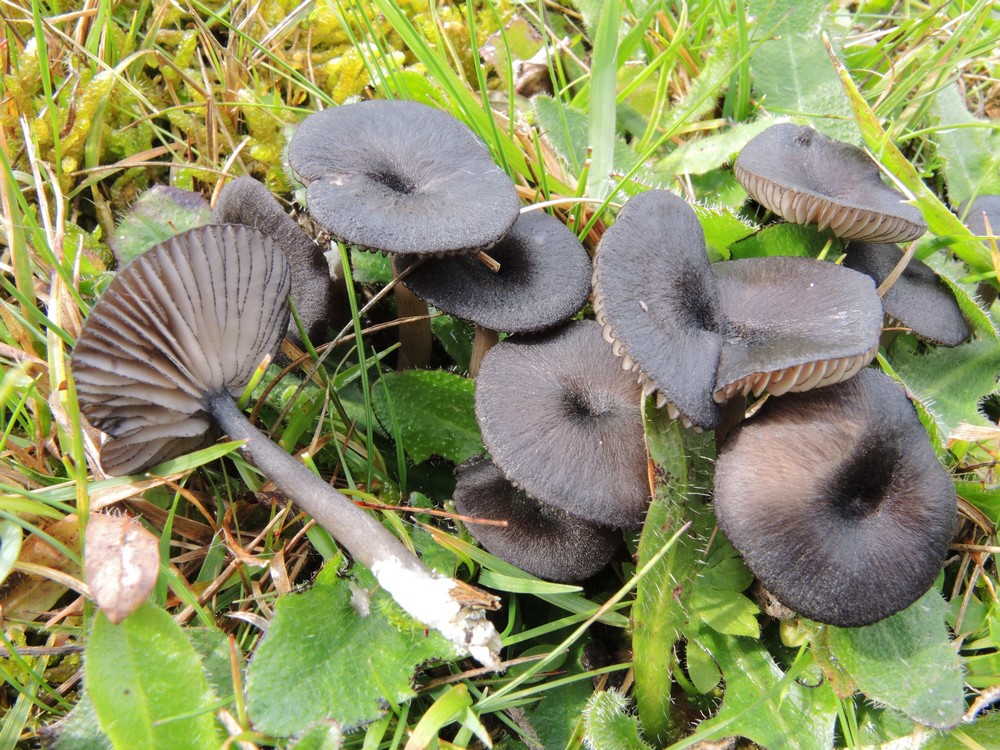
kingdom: Fungi
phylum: Basidiomycota
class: Agaricomycetes
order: Agaricales
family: Entolomataceae
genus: Entoloma
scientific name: Entoloma
